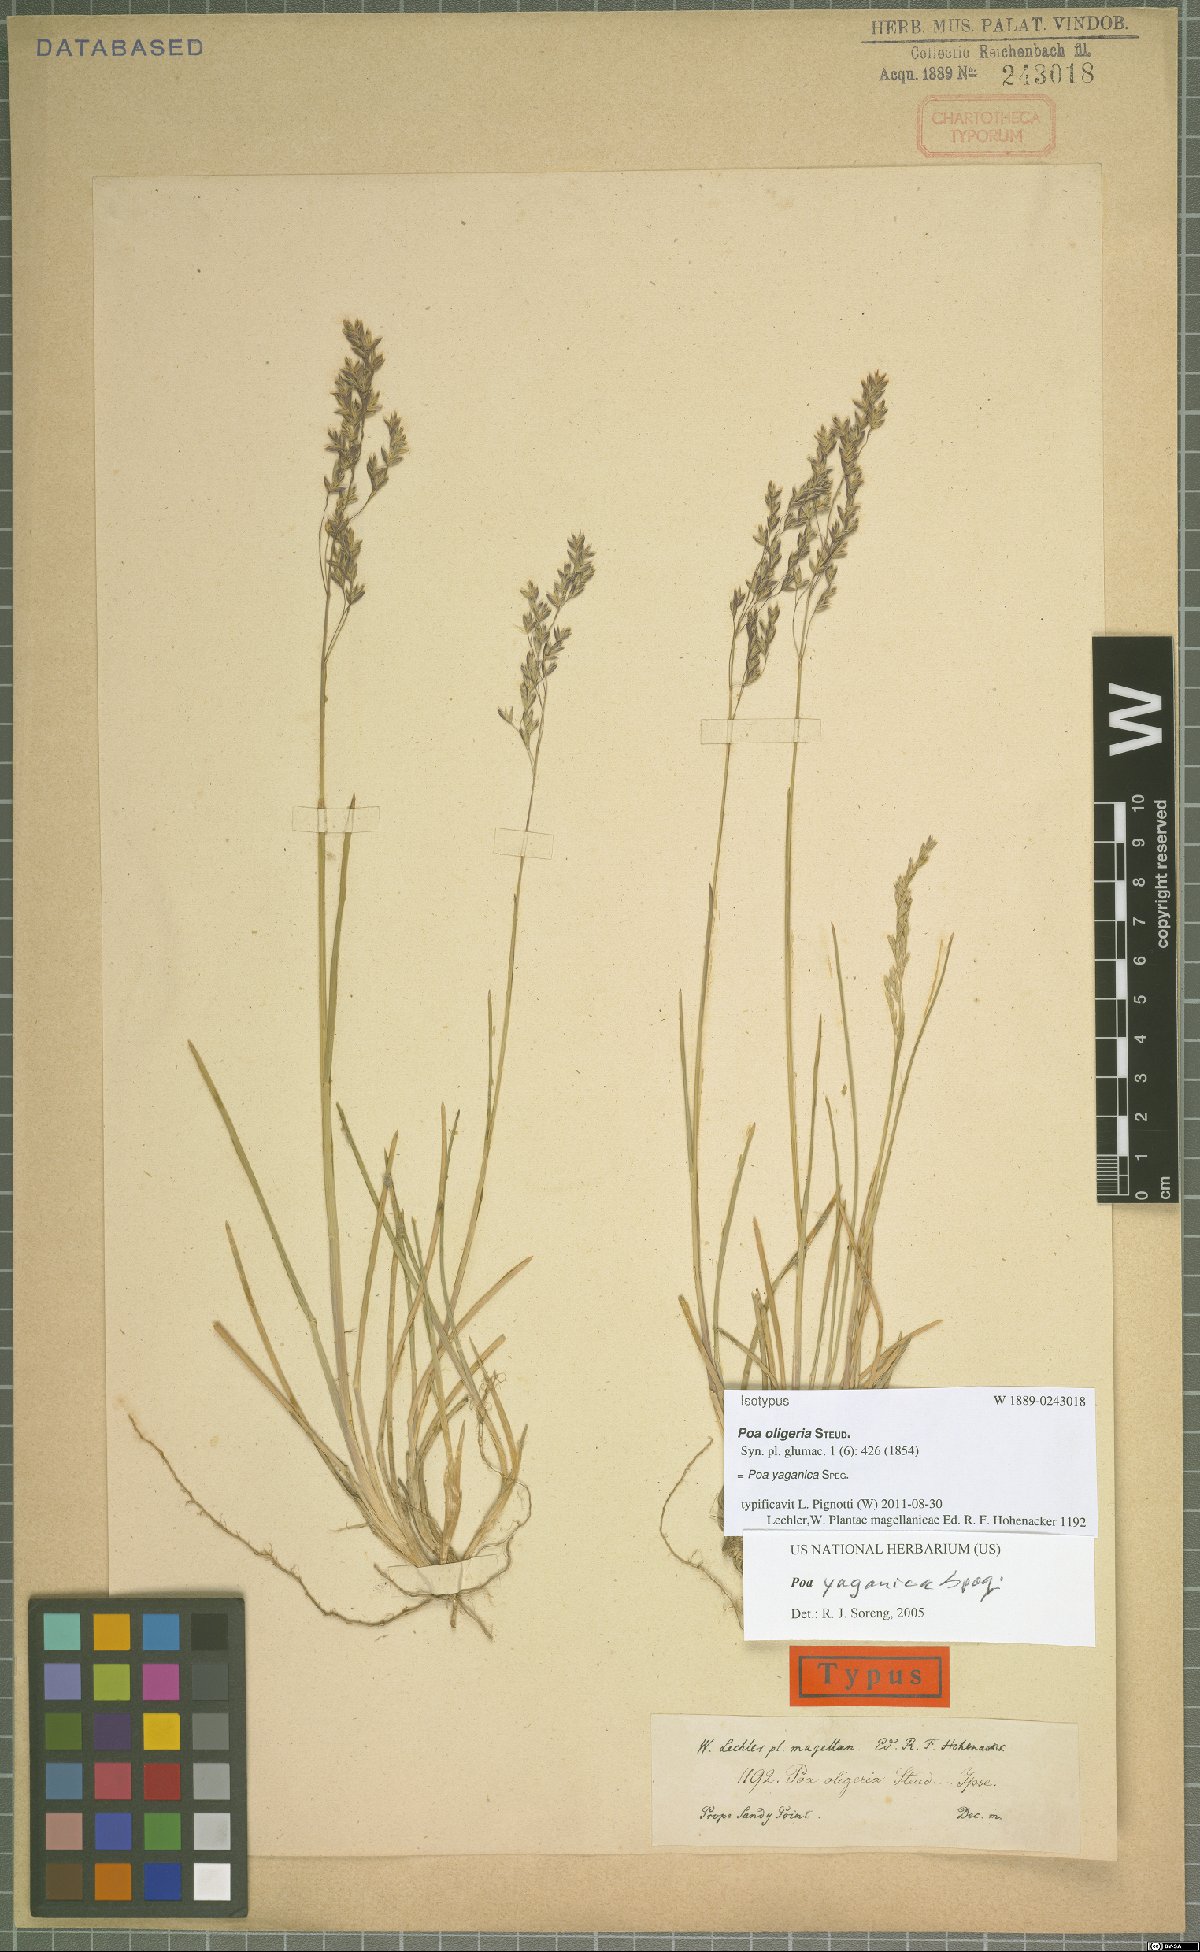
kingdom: Plantae
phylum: Tracheophyta
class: Liliopsida
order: Poales
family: Poaceae
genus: Poa
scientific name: Poa yaganica
